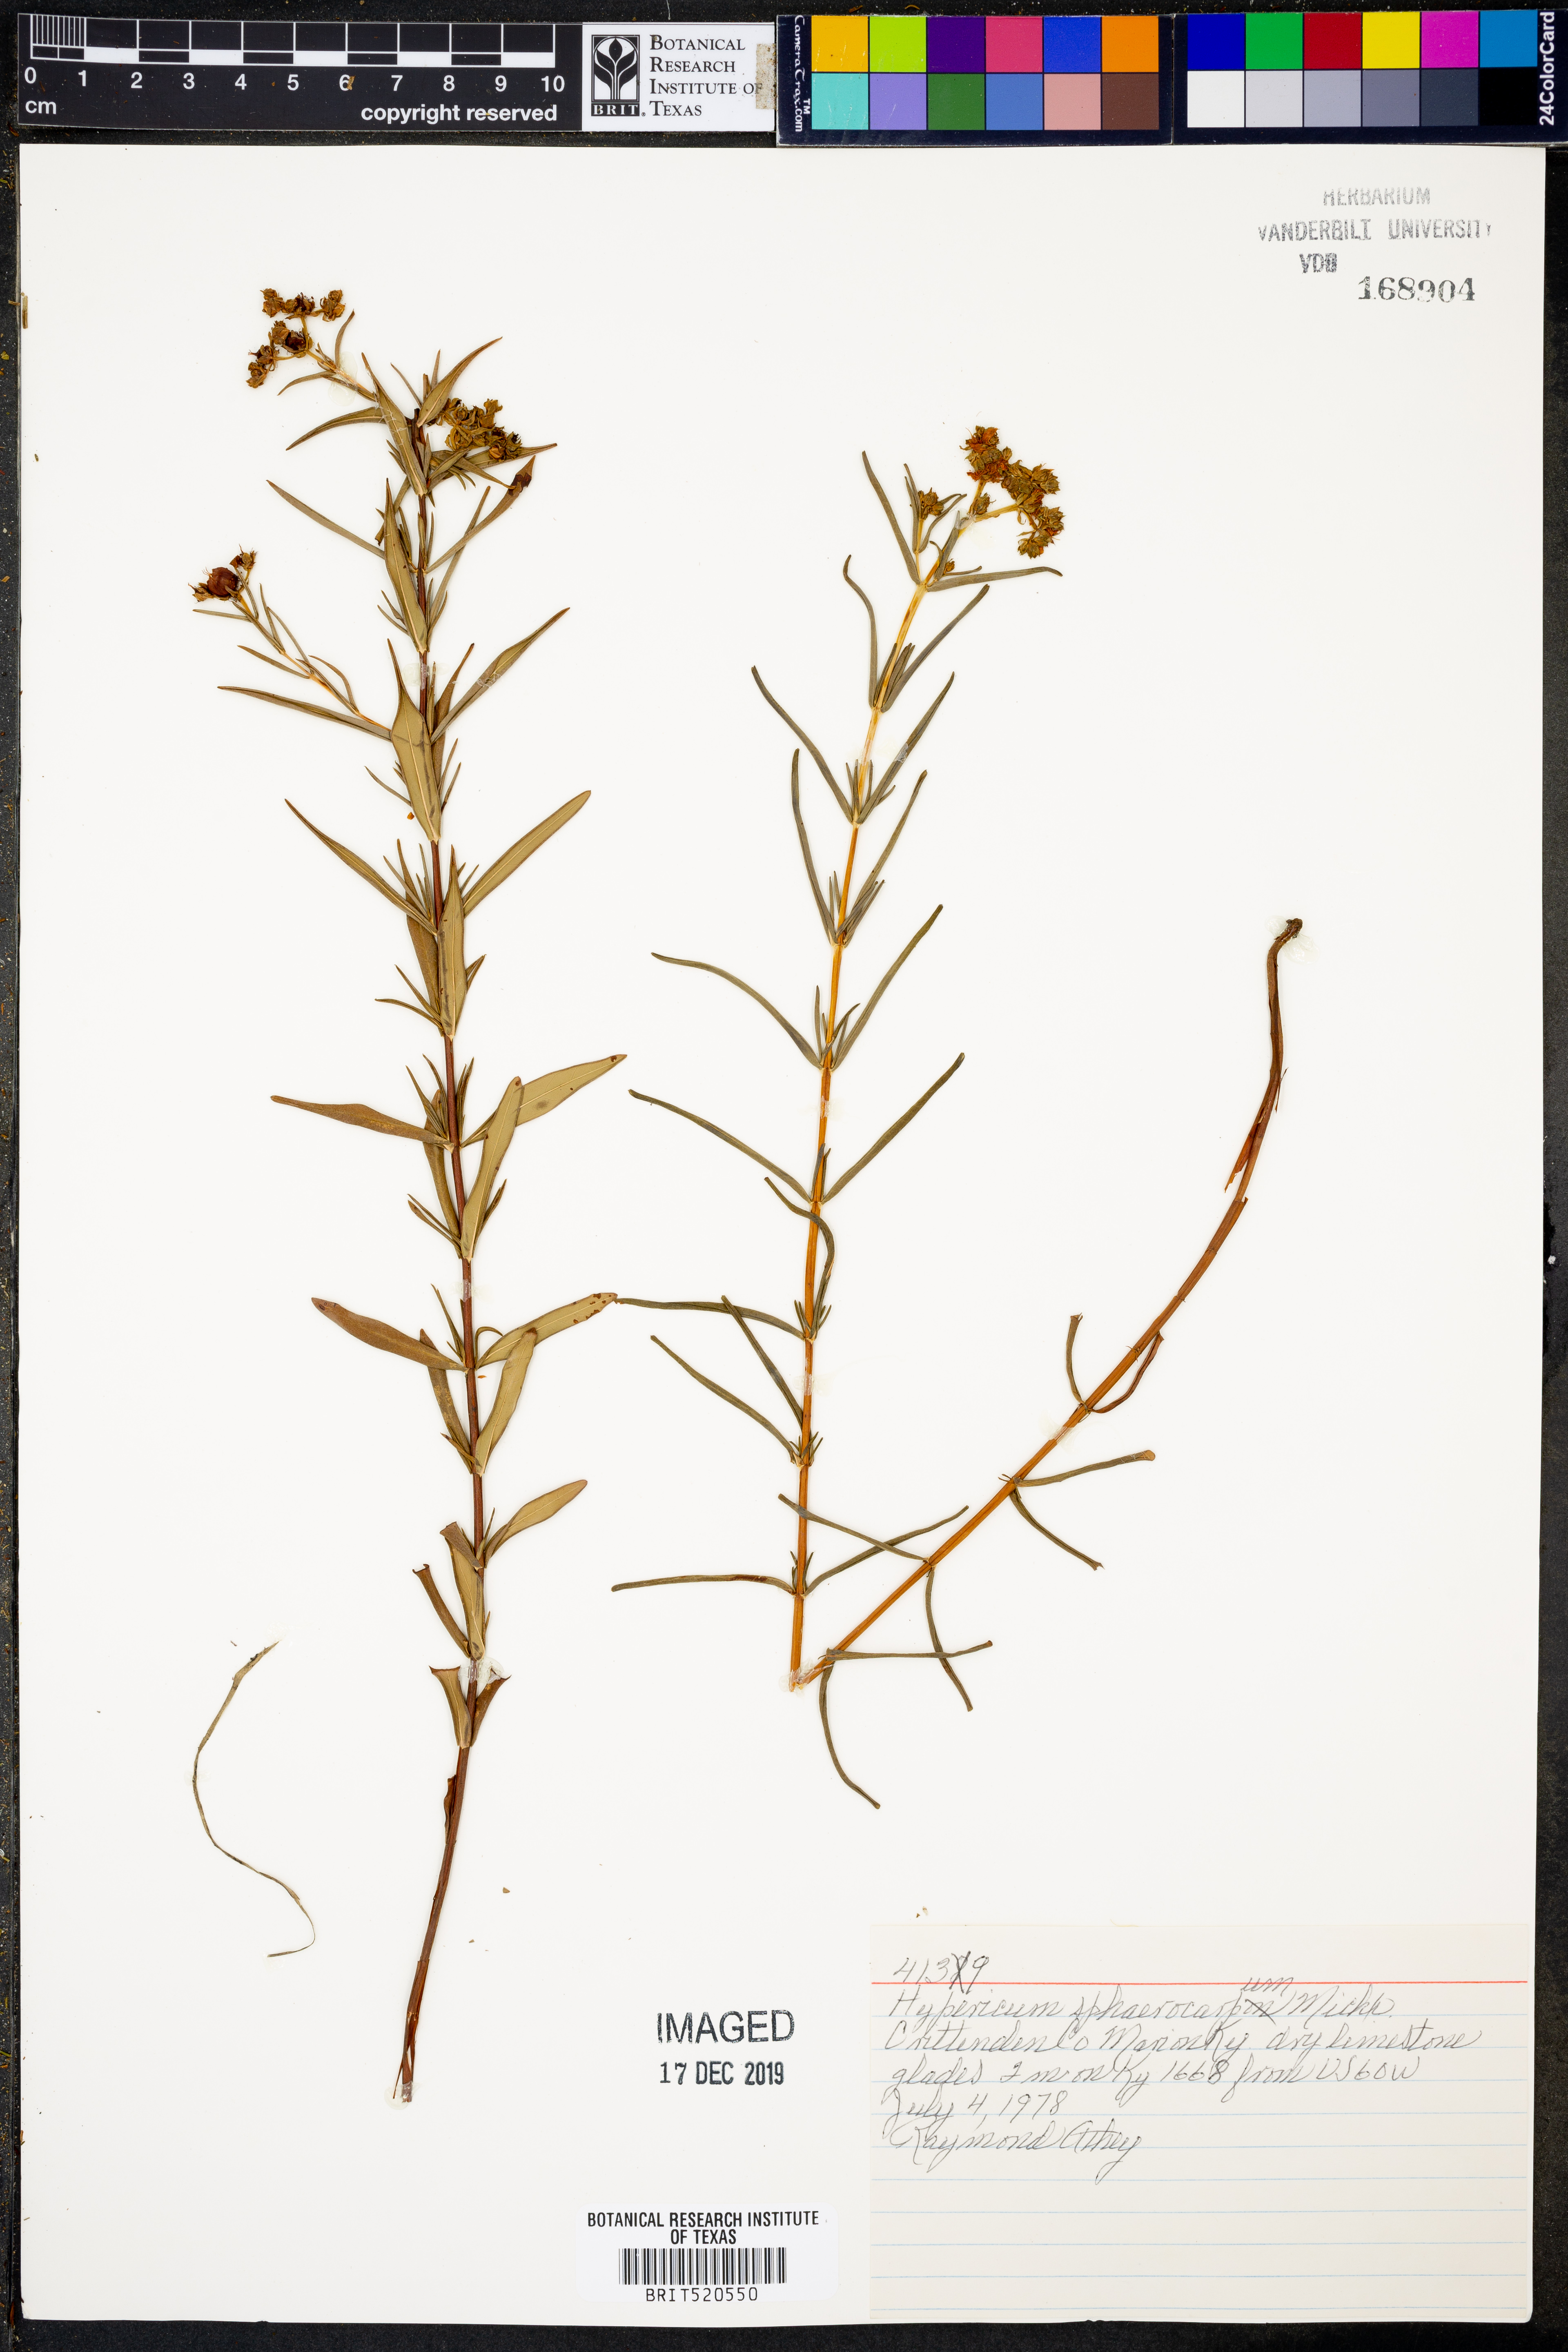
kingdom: Plantae
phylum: Tracheophyta
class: Magnoliopsida
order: Malpighiales
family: Hypericaceae
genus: Hypericum
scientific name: Hypericum sphaerocarpum
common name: Round-fruited st. john's-wort
